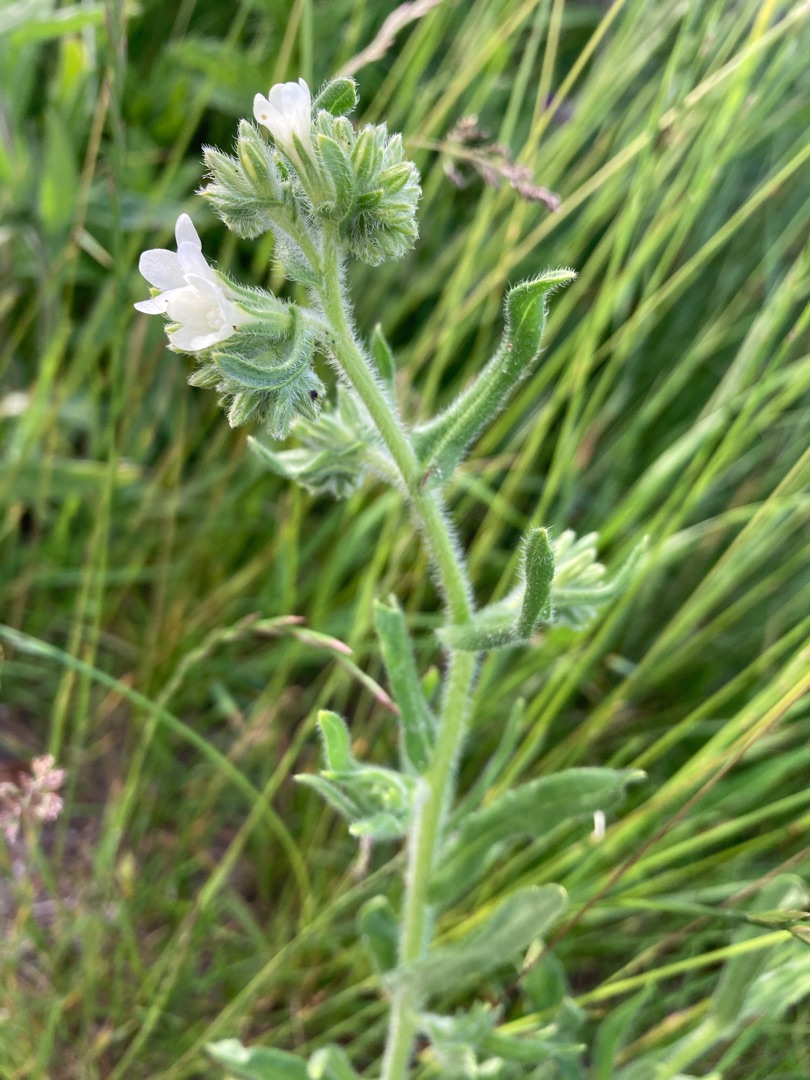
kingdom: Plantae
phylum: Tracheophyta
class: Magnoliopsida
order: Boraginales
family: Boraginaceae
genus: Anchusa
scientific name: Anchusa officinalis
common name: Læge-oksetunge
